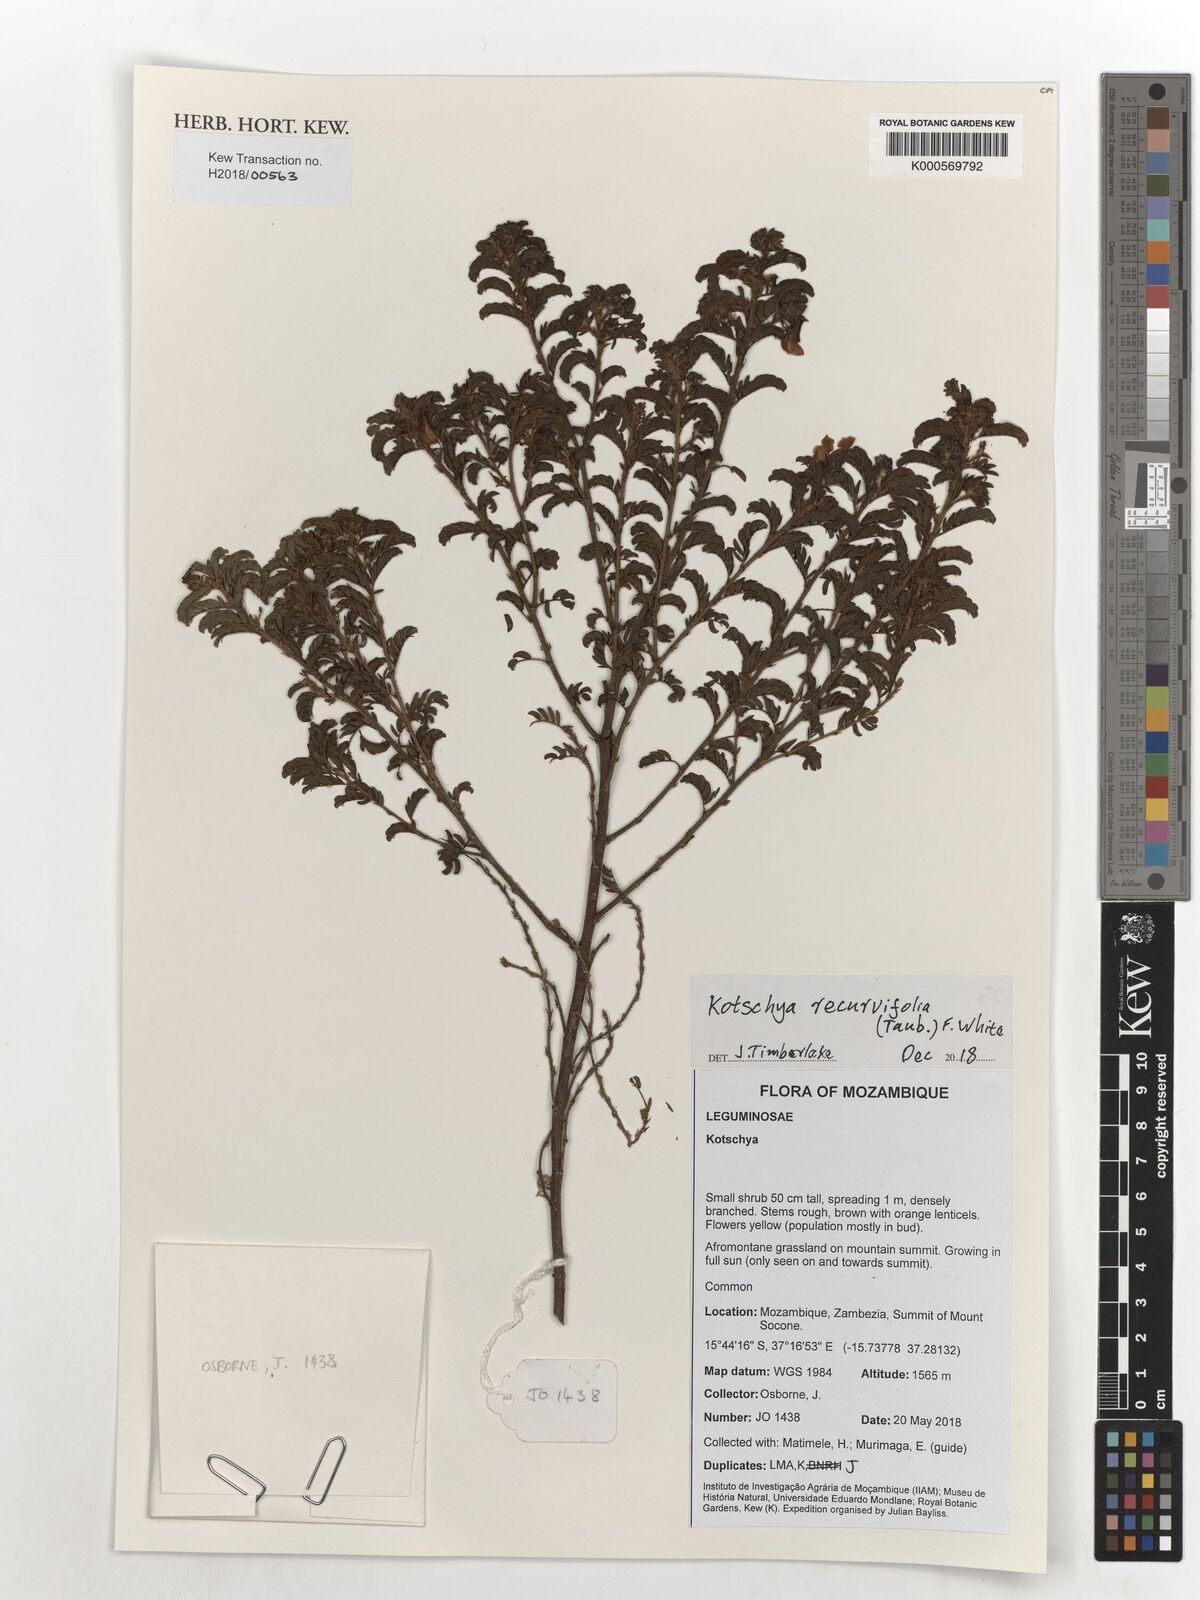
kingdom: Plantae
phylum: Tracheophyta
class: Magnoliopsida
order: Fabales
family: Fabaceae
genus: Kotschya
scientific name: Kotschya recurvifolia
